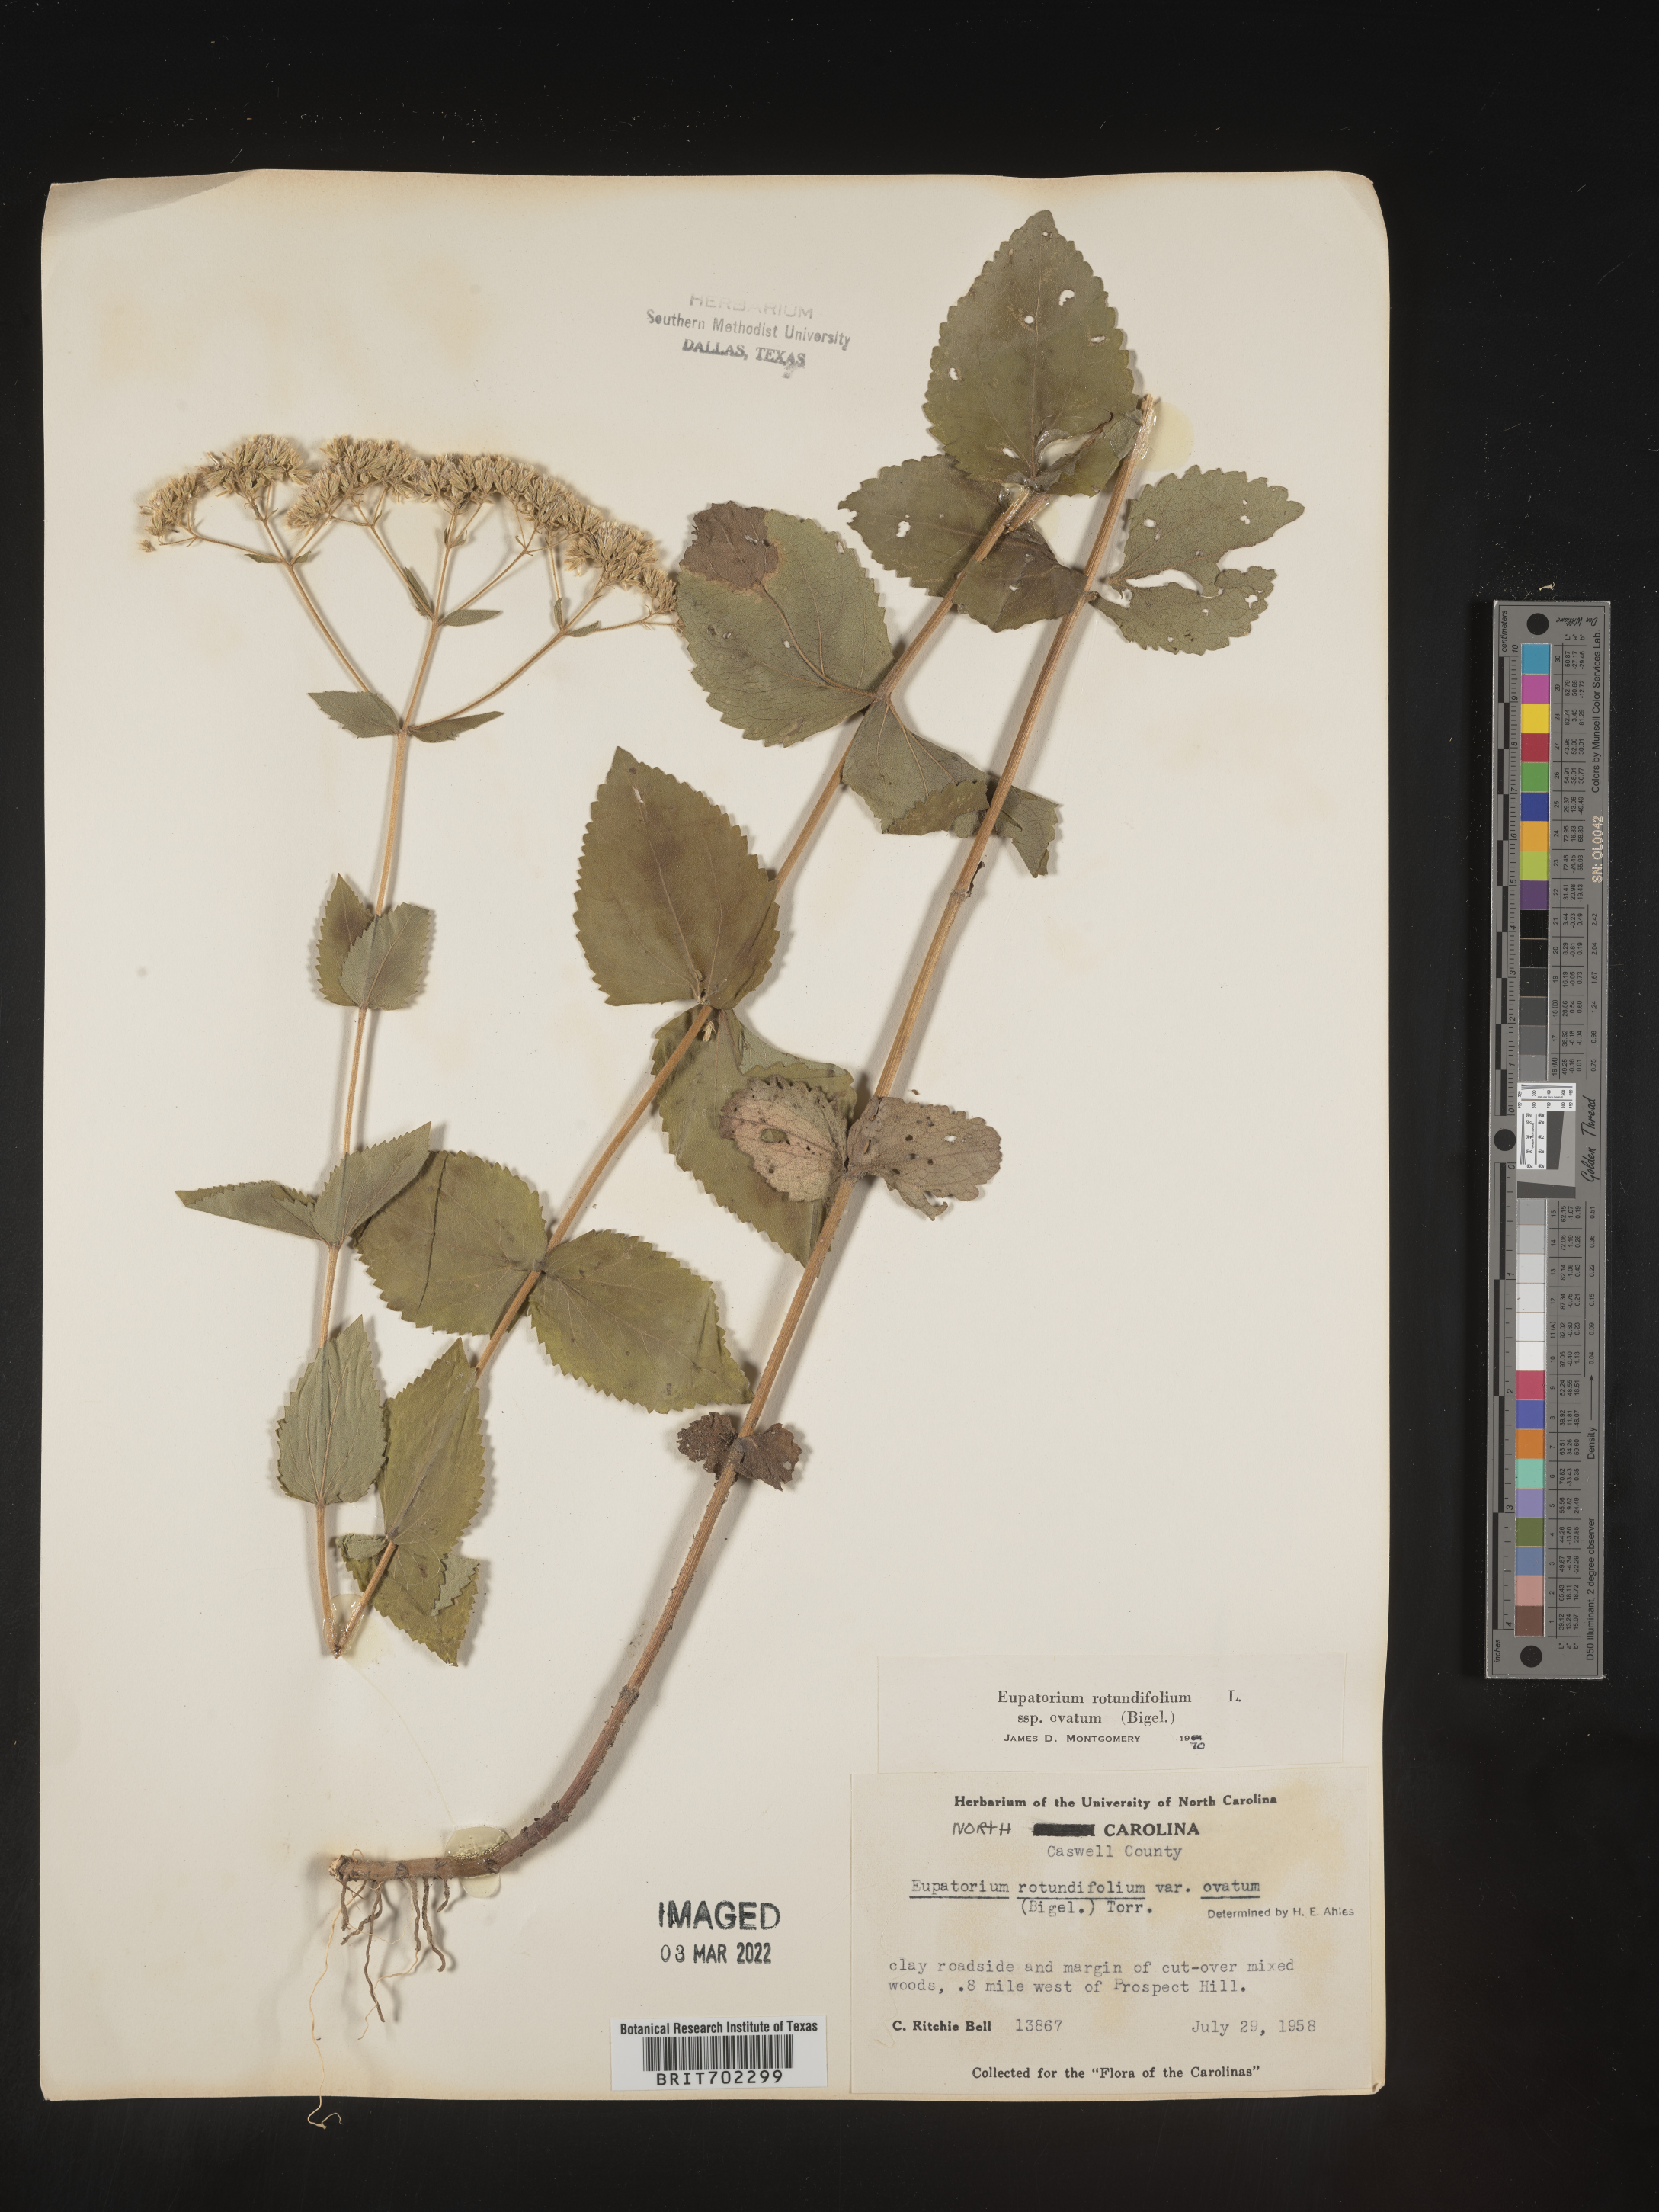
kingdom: Plantae
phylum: Tracheophyta
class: Magnoliopsida
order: Asterales
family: Asteraceae
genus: Eupatorium
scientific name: Eupatorium rotundifolium
